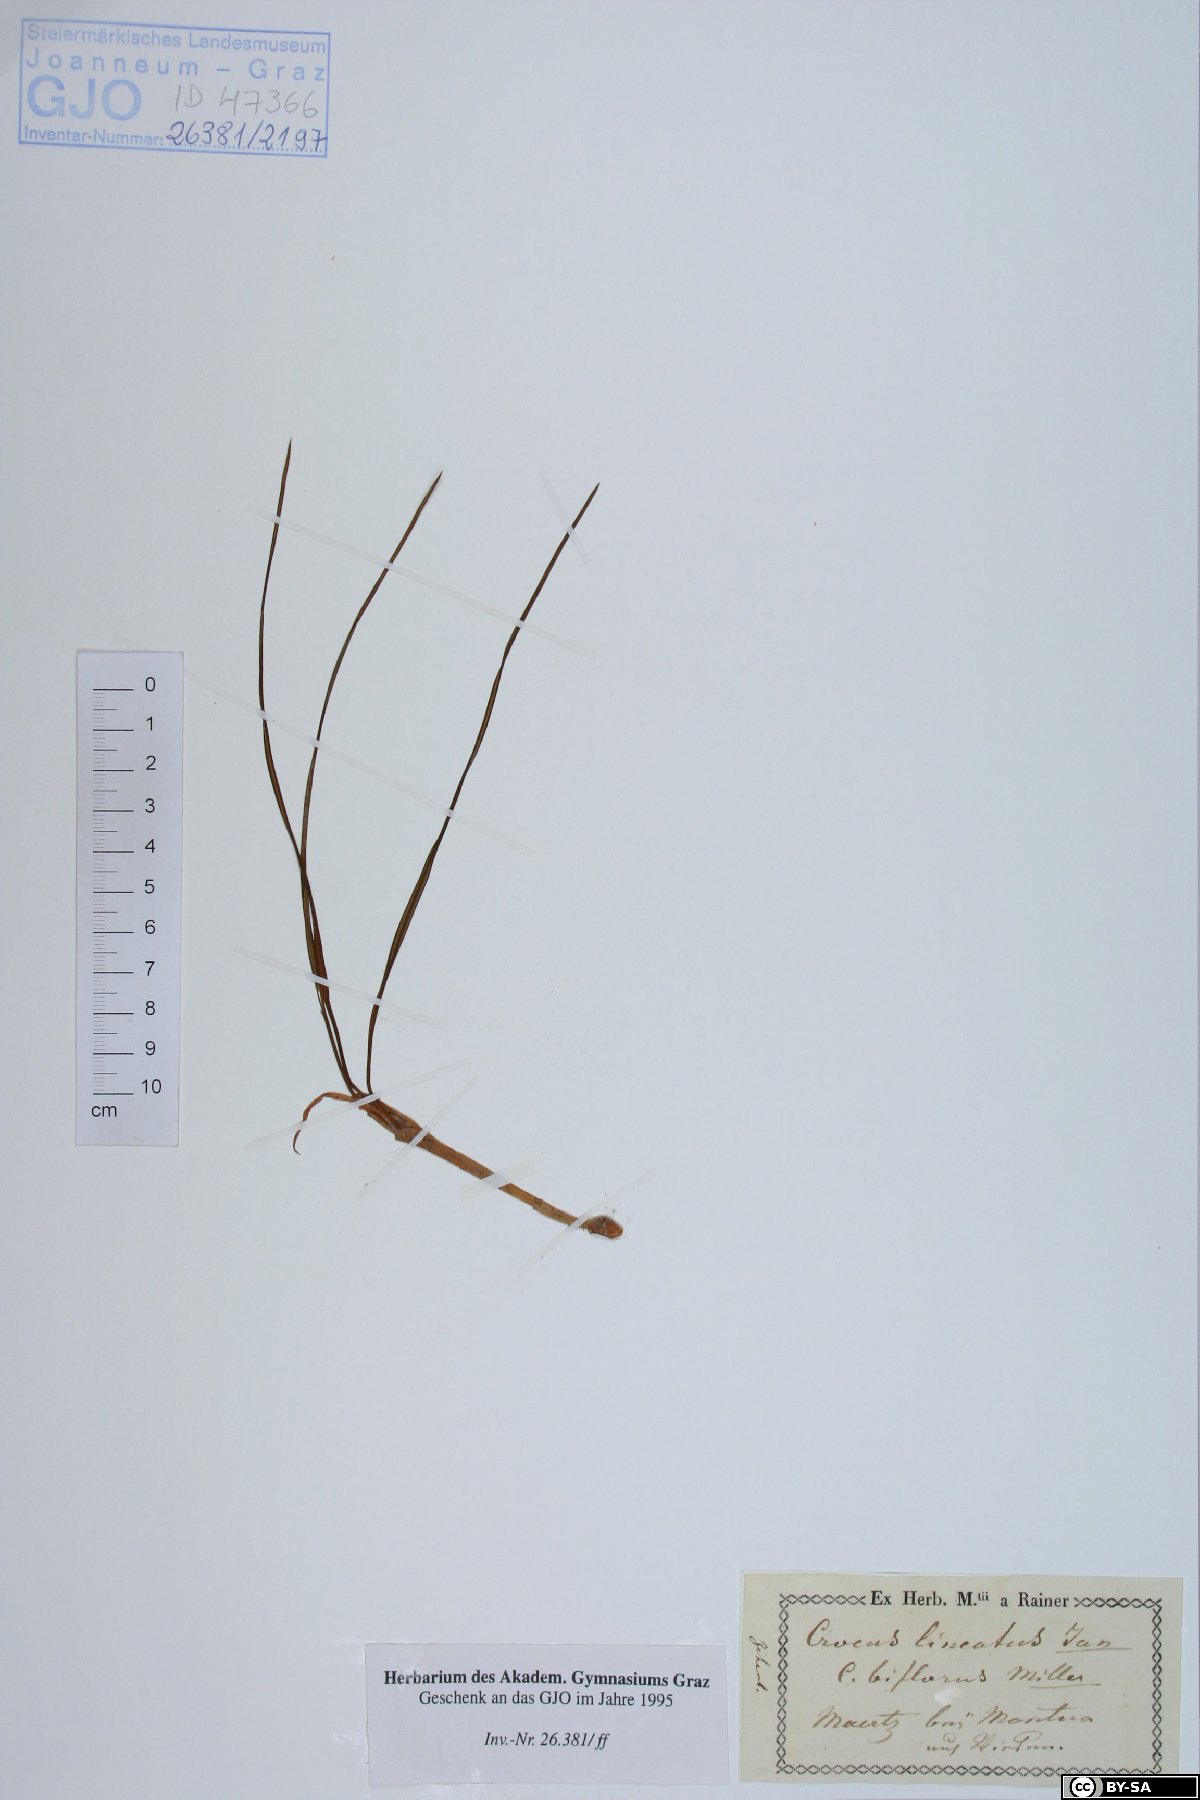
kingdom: Plantae
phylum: Tracheophyta
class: Liliopsida
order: Asparagales
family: Iridaceae
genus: Crocus
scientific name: Crocus biflorus
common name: Silvery crocus
